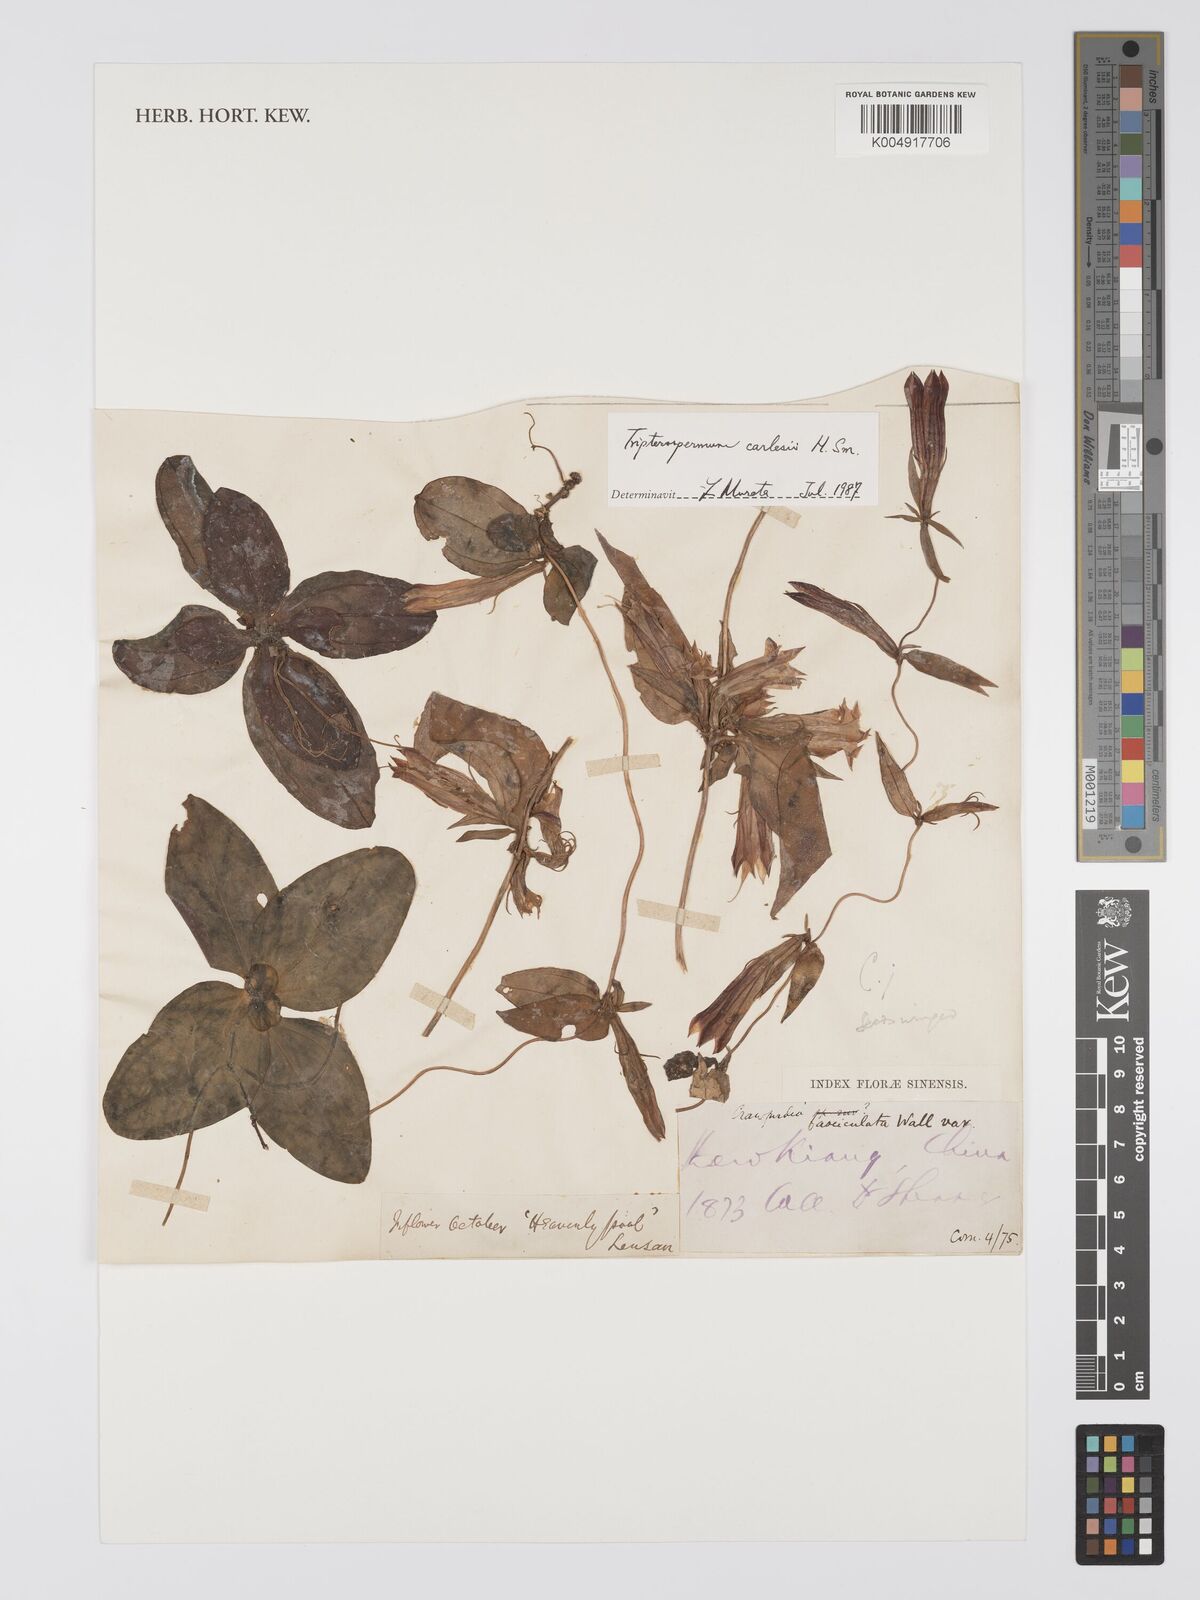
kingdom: Plantae
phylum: Tracheophyta
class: Magnoliopsida
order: Gentianales
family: Gentianaceae
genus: Tripterospermum
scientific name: Tripterospermum chinense
